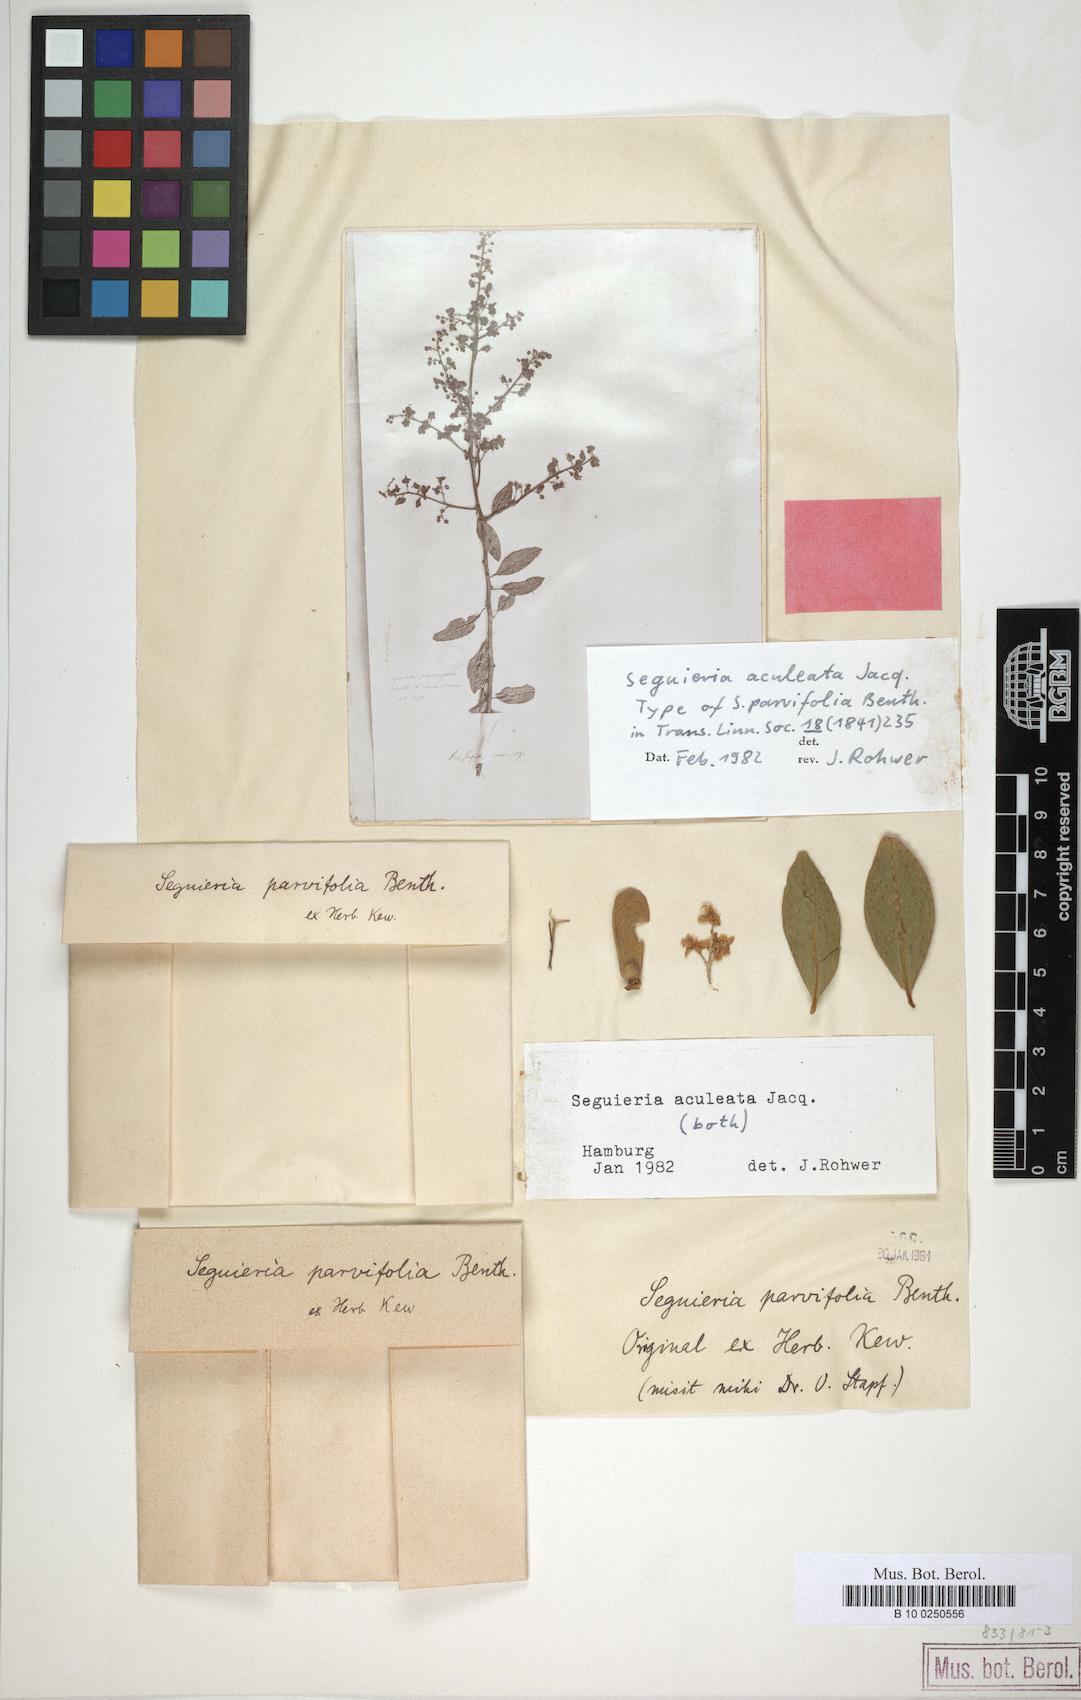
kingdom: Plantae
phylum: Tracheophyta
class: Magnoliopsida
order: Caryophyllales
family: Phytolaccaceae
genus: Seguieria
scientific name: Seguieria aculeata
